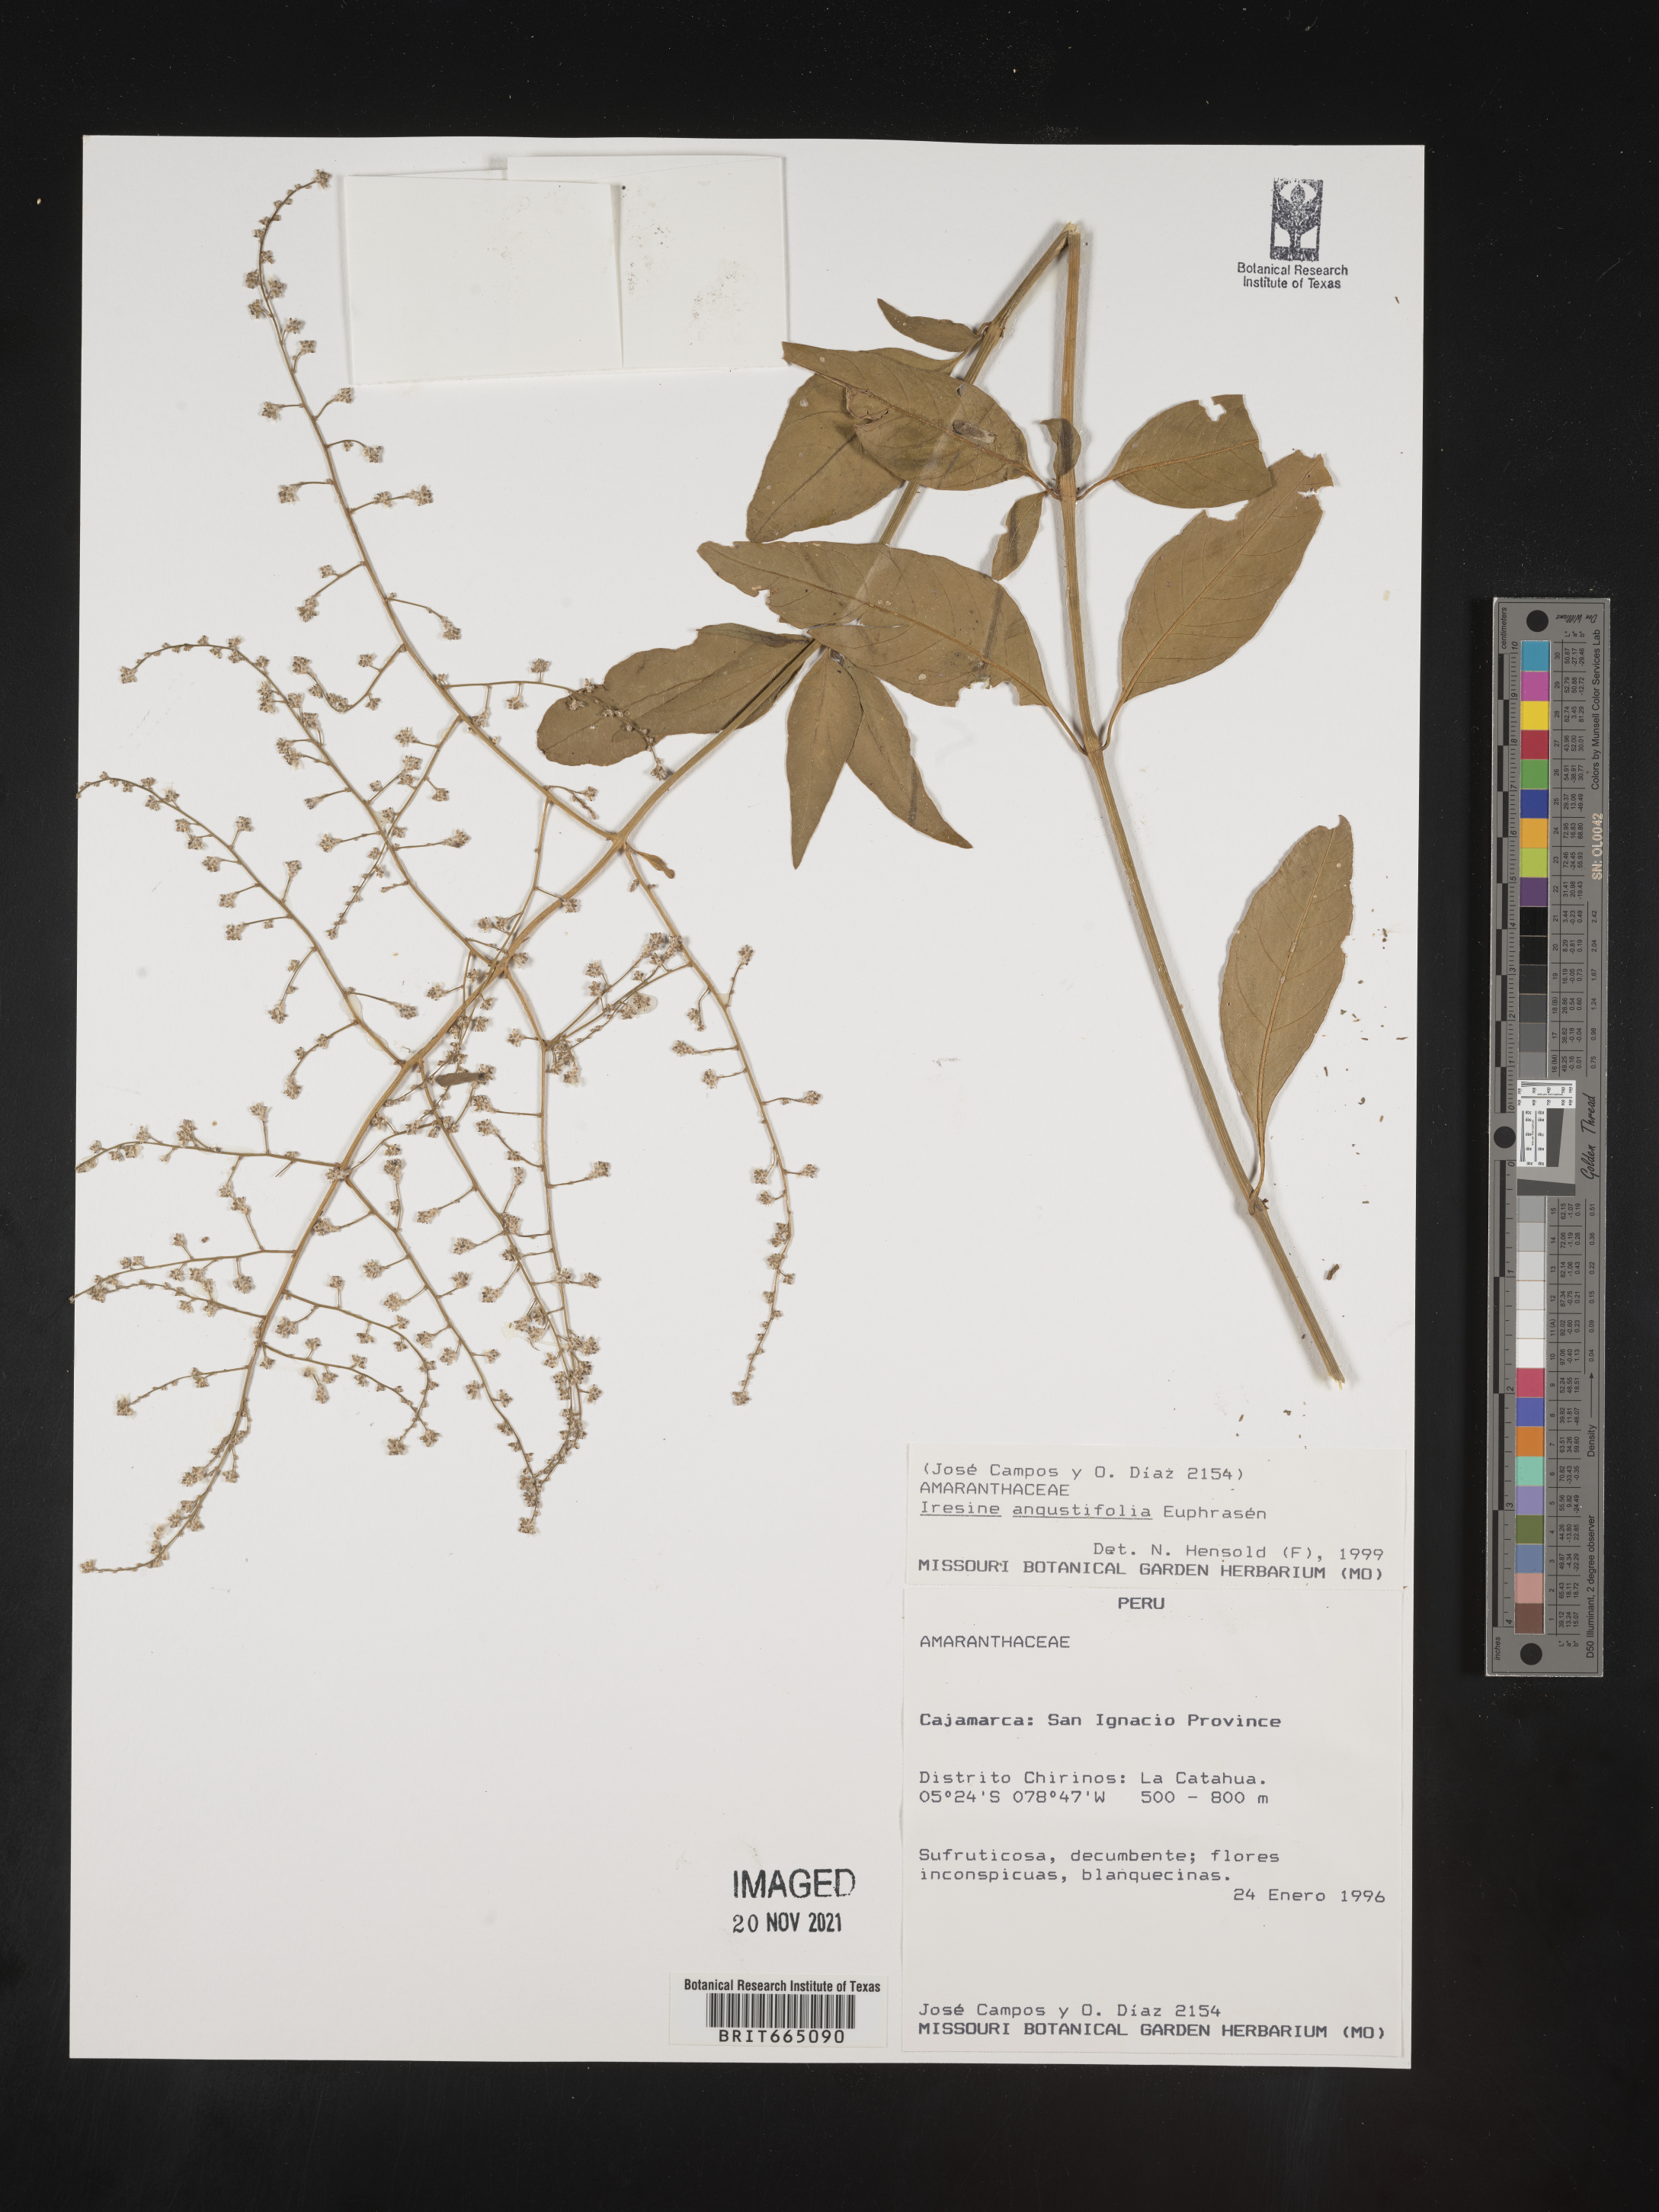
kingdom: Plantae
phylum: Tracheophyta
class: Magnoliopsida
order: Caryophyllales
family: Amaranthaceae
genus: Iresine
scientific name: Iresine
